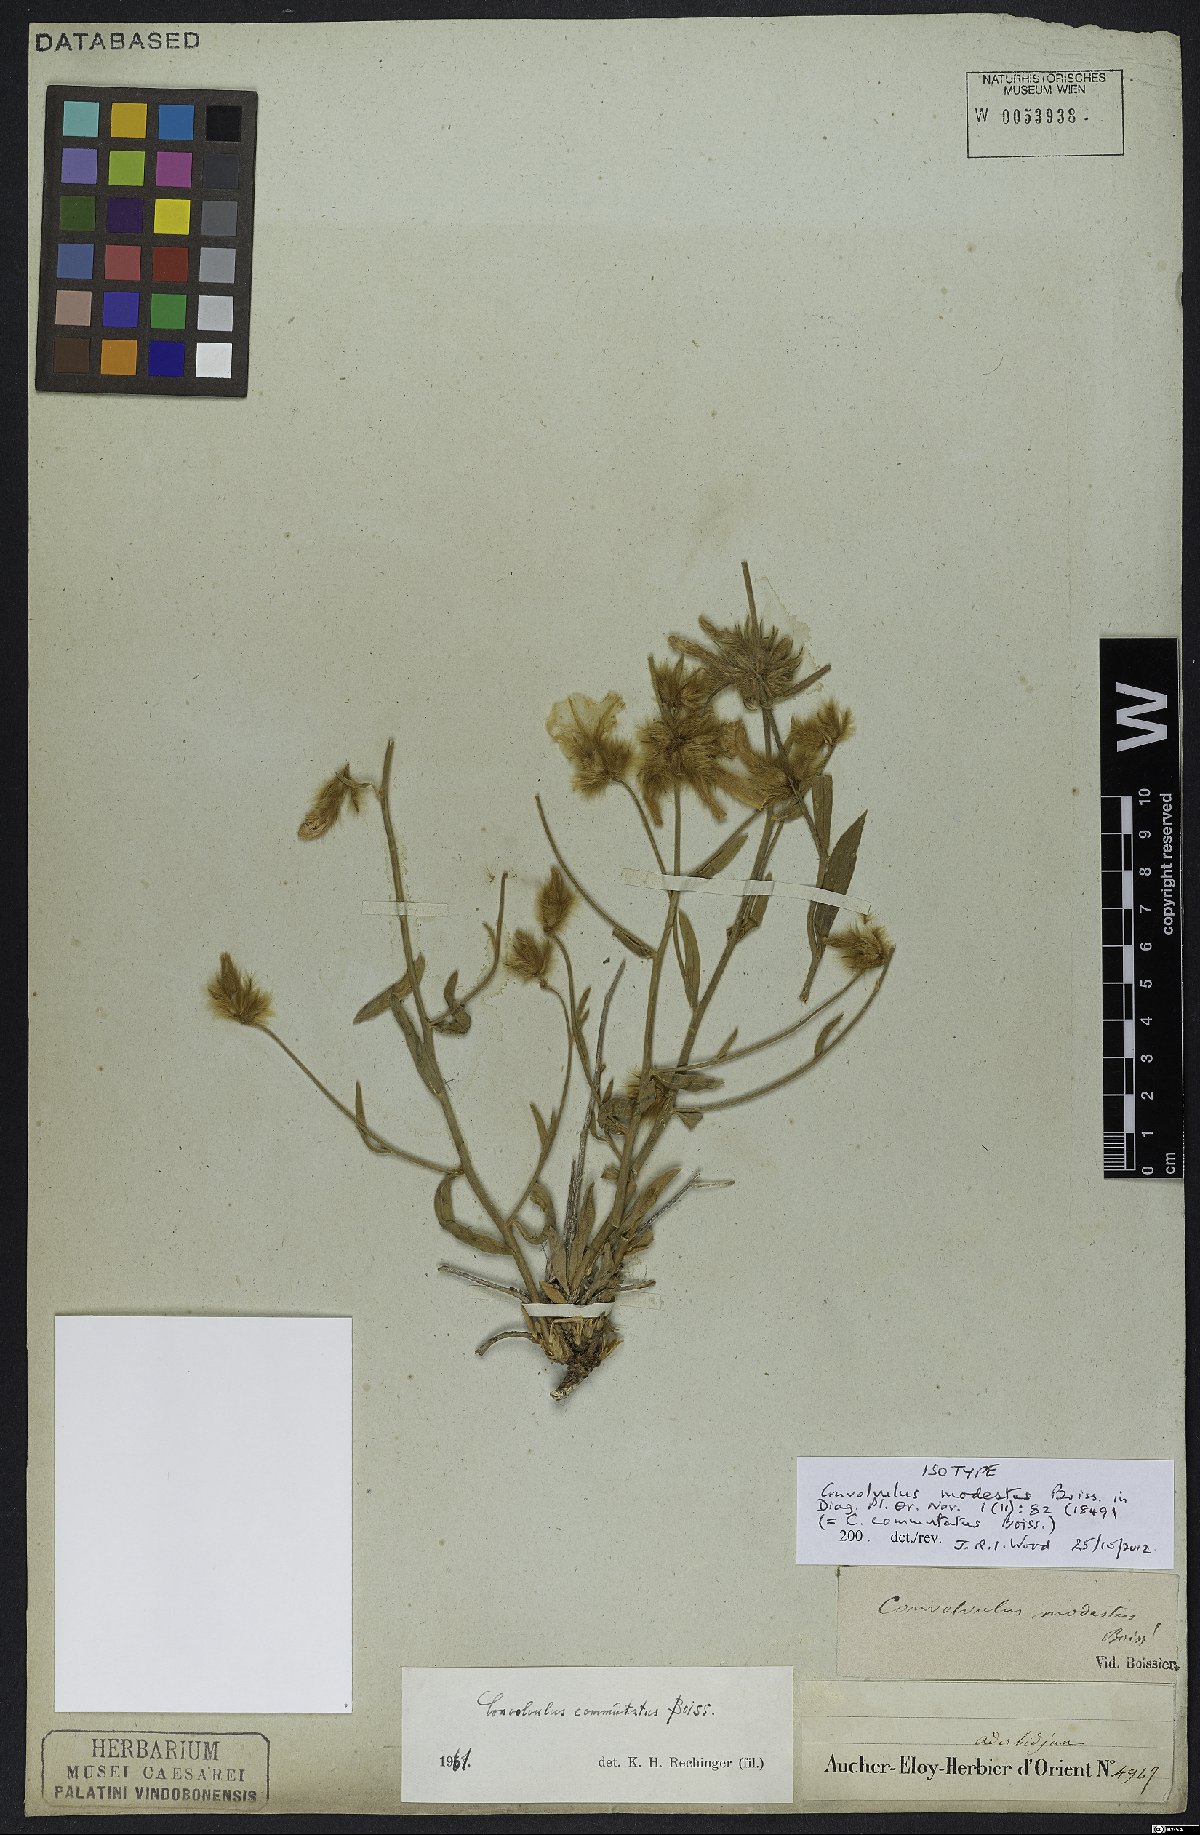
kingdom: Plantae
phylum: Tracheophyta
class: Magnoliopsida
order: Solanales
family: Convolvulaceae
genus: Convolvulus
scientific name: Convolvulus commutatus
